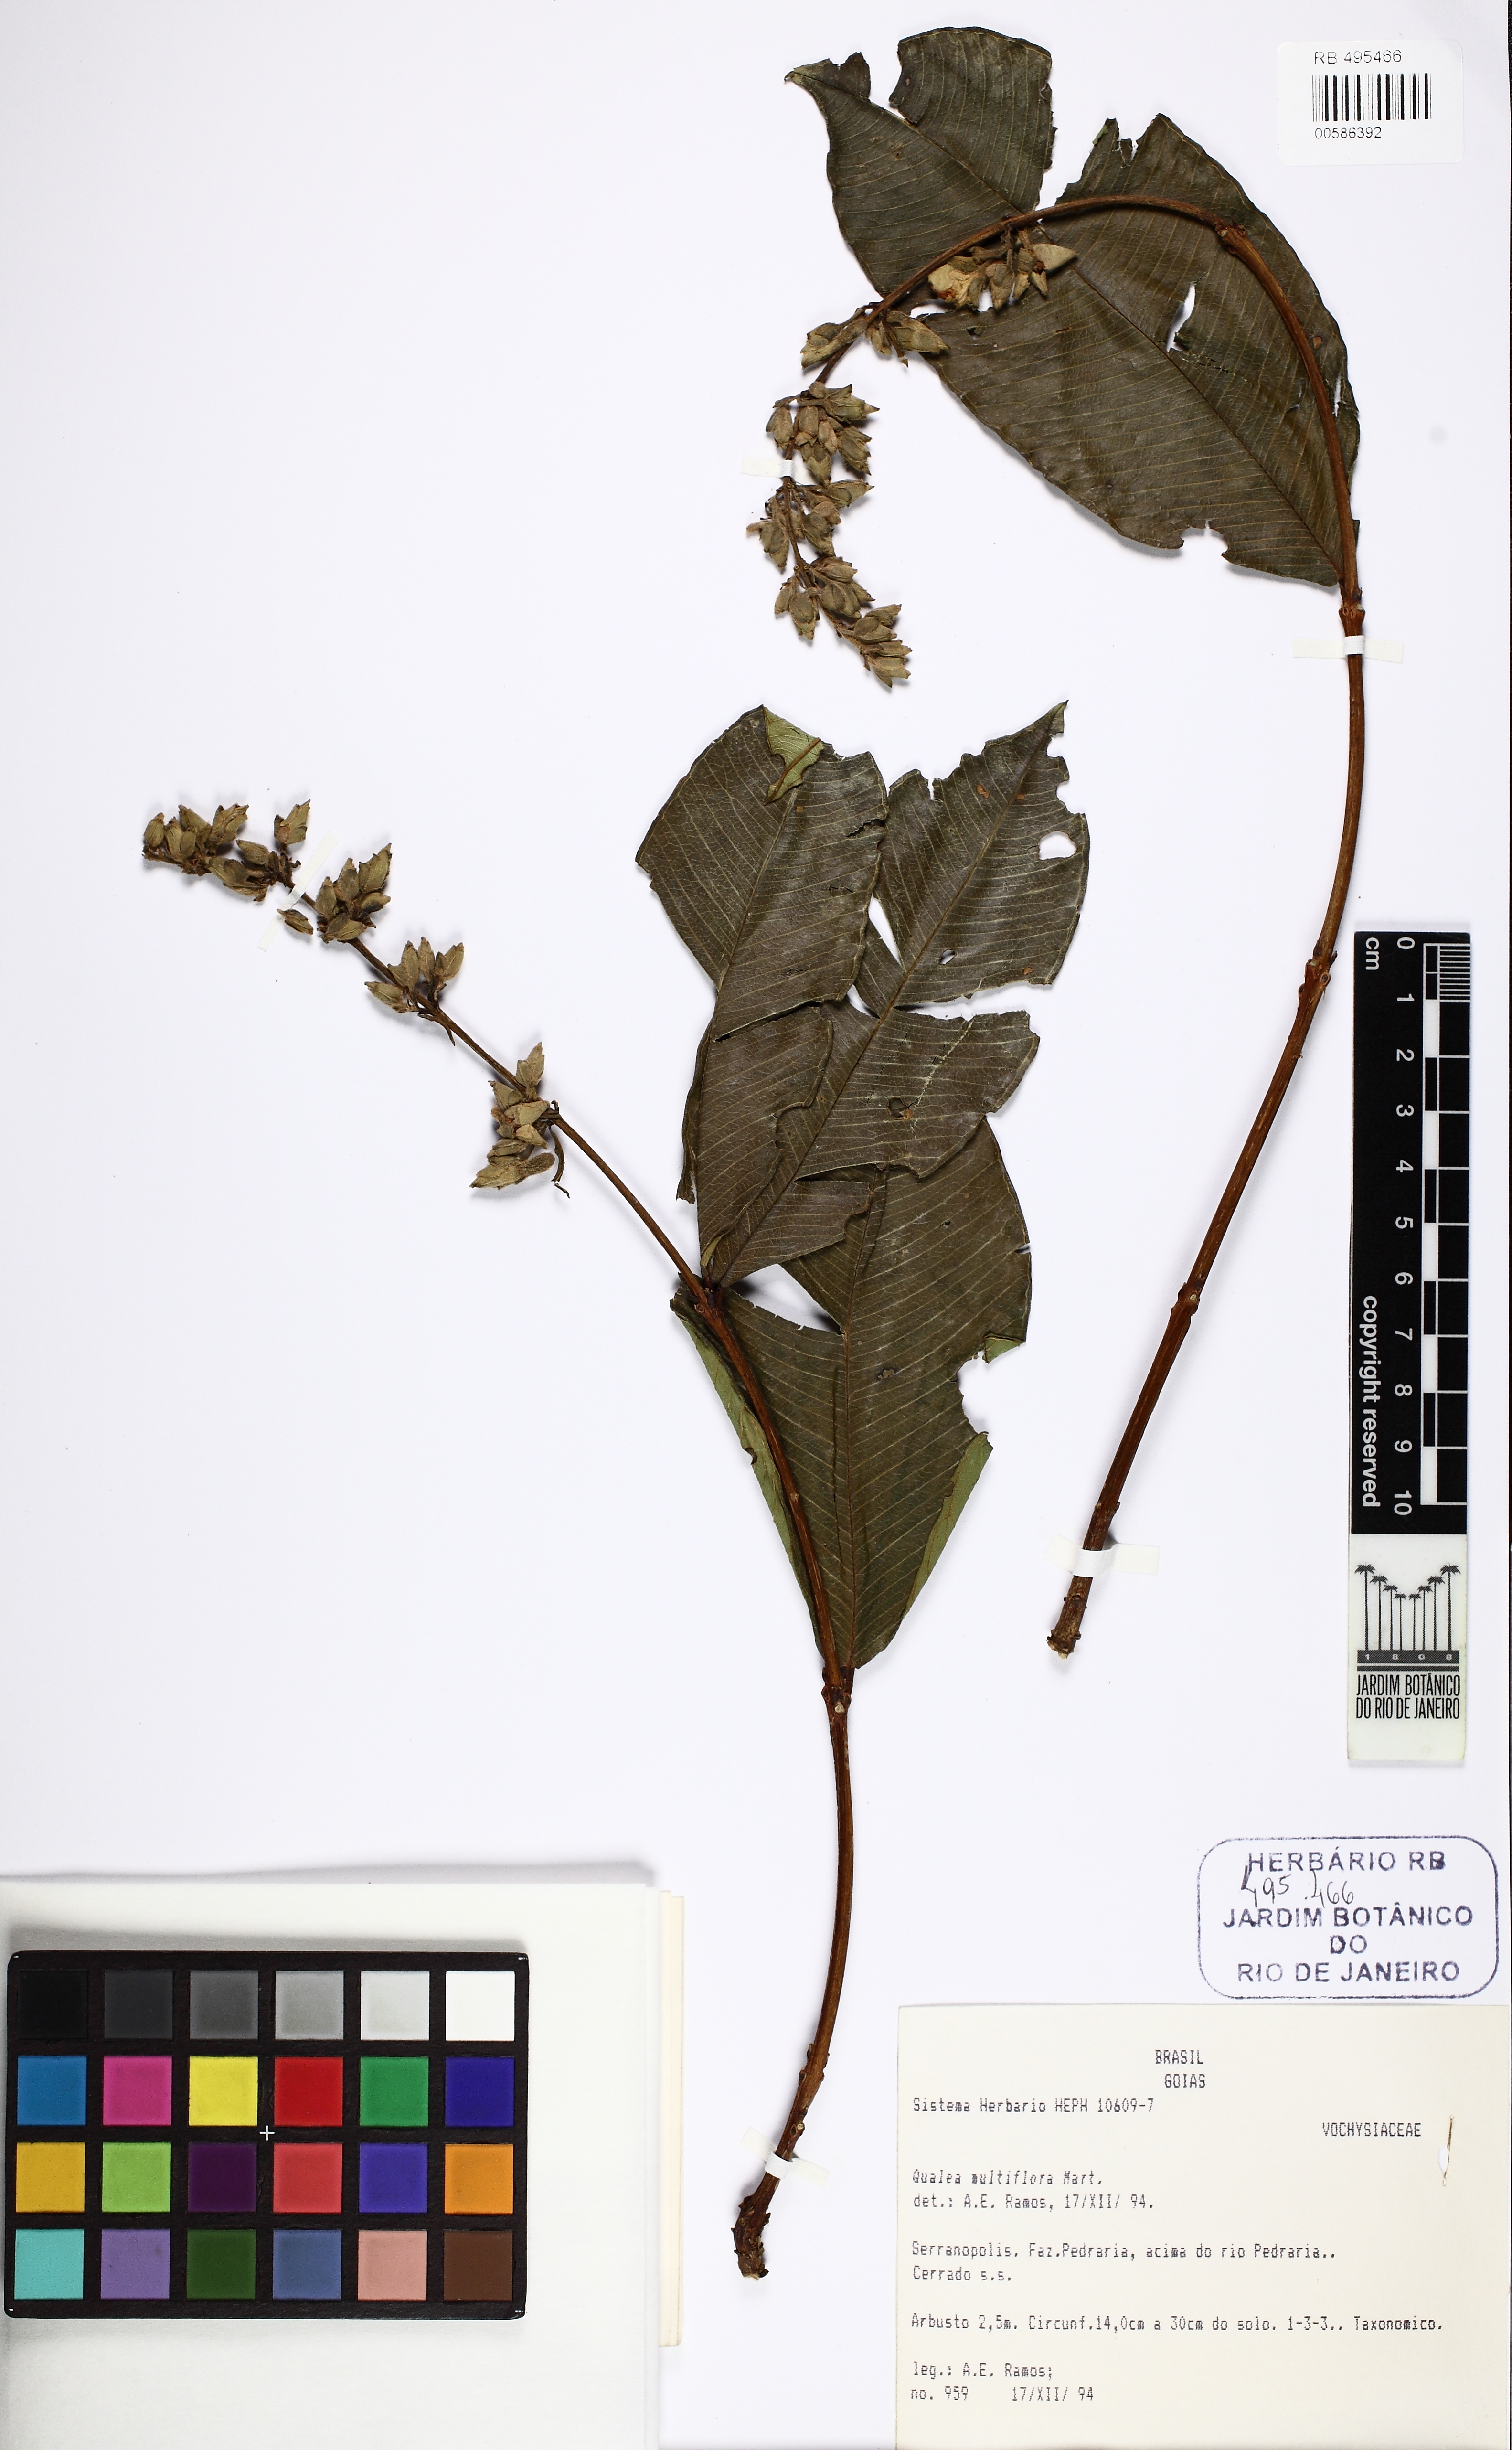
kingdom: Plantae
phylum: Tracheophyta
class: Magnoliopsida
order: Myrtales
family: Vochysiaceae
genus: Qualea
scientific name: Qualea multiflora
